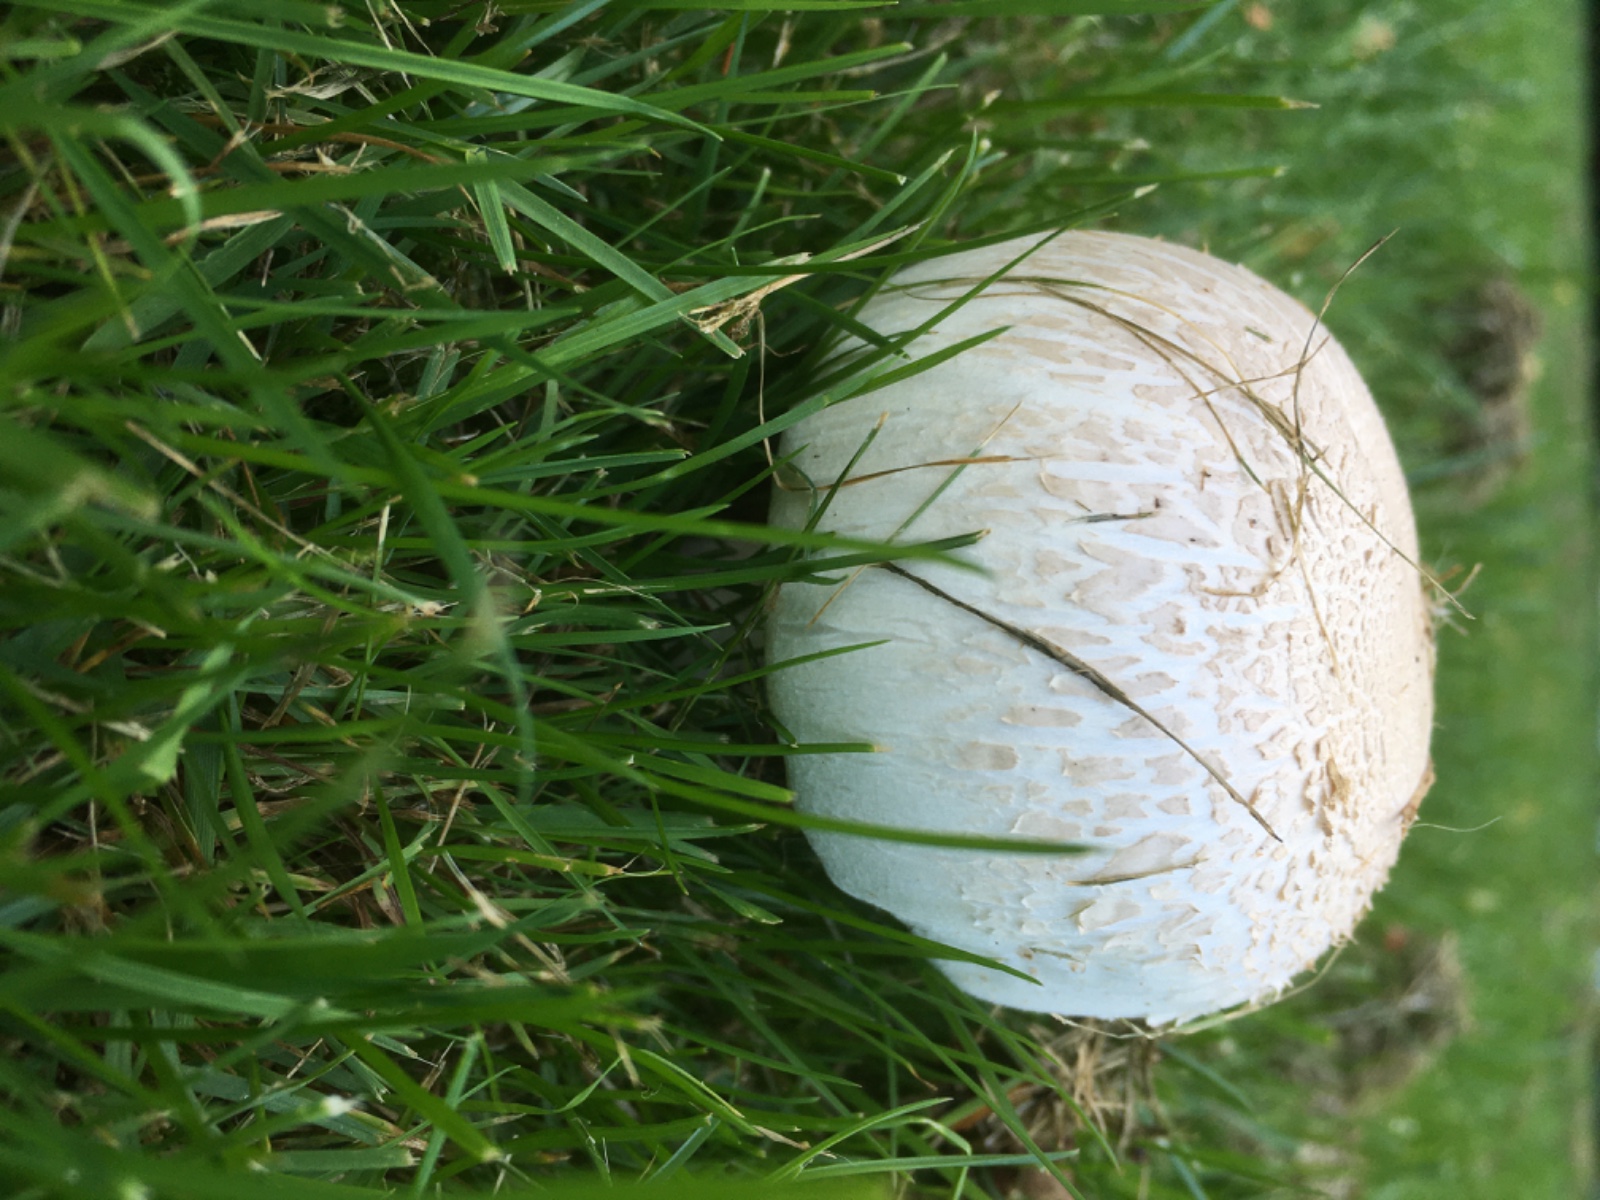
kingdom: Fungi
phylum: Basidiomycota
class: Agaricomycetes
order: Agaricales
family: Agaricaceae
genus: Agaricus
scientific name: Agaricus xanthodermus
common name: karbol-champignon
